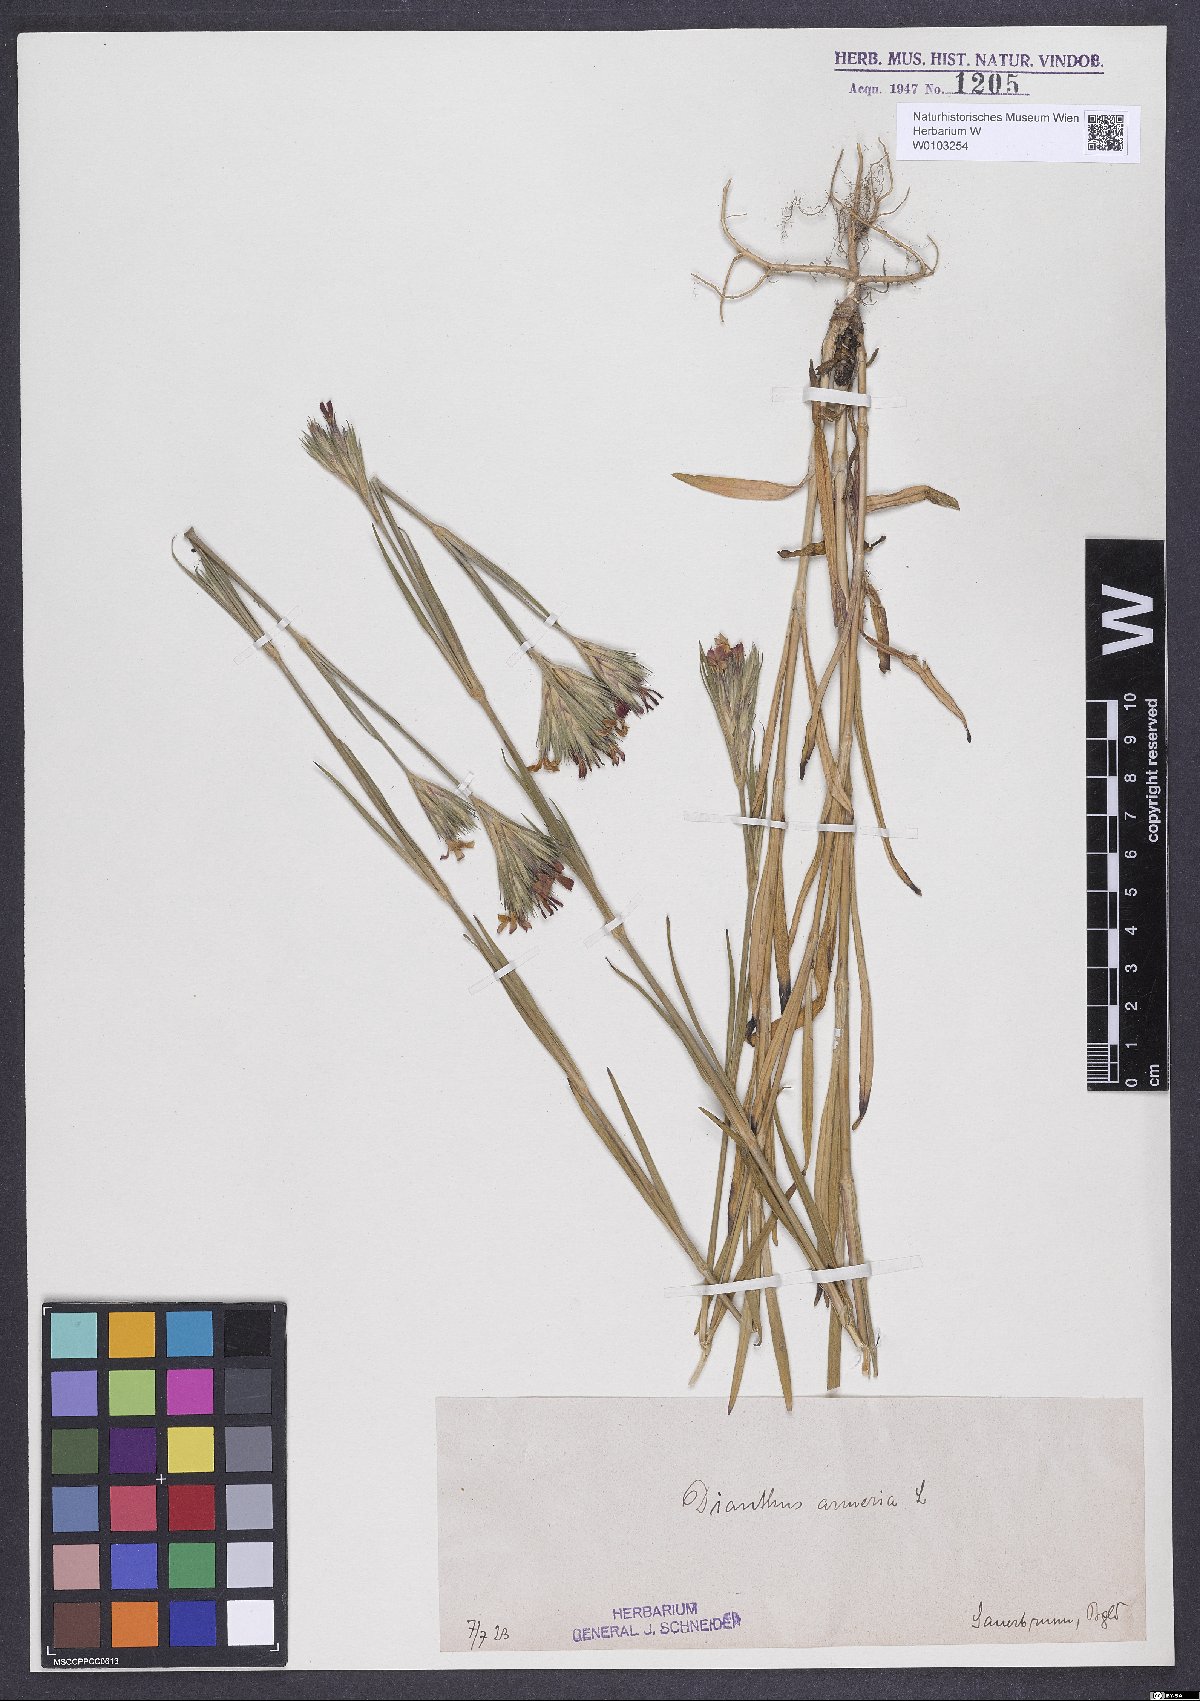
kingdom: Plantae
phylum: Tracheophyta
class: Magnoliopsida
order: Caryophyllales
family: Caryophyllaceae
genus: Dianthus
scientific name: Dianthus armeria
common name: Deptford pink
